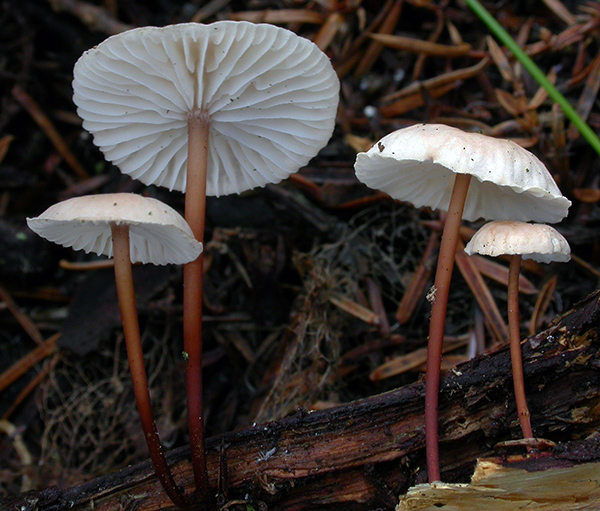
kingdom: Fungi
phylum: Basidiomycota
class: Agaricomycetes
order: Agaricales
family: Omphalotaceae
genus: Mycetinis
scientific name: Mycetinis scorodonius
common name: lille løghat
